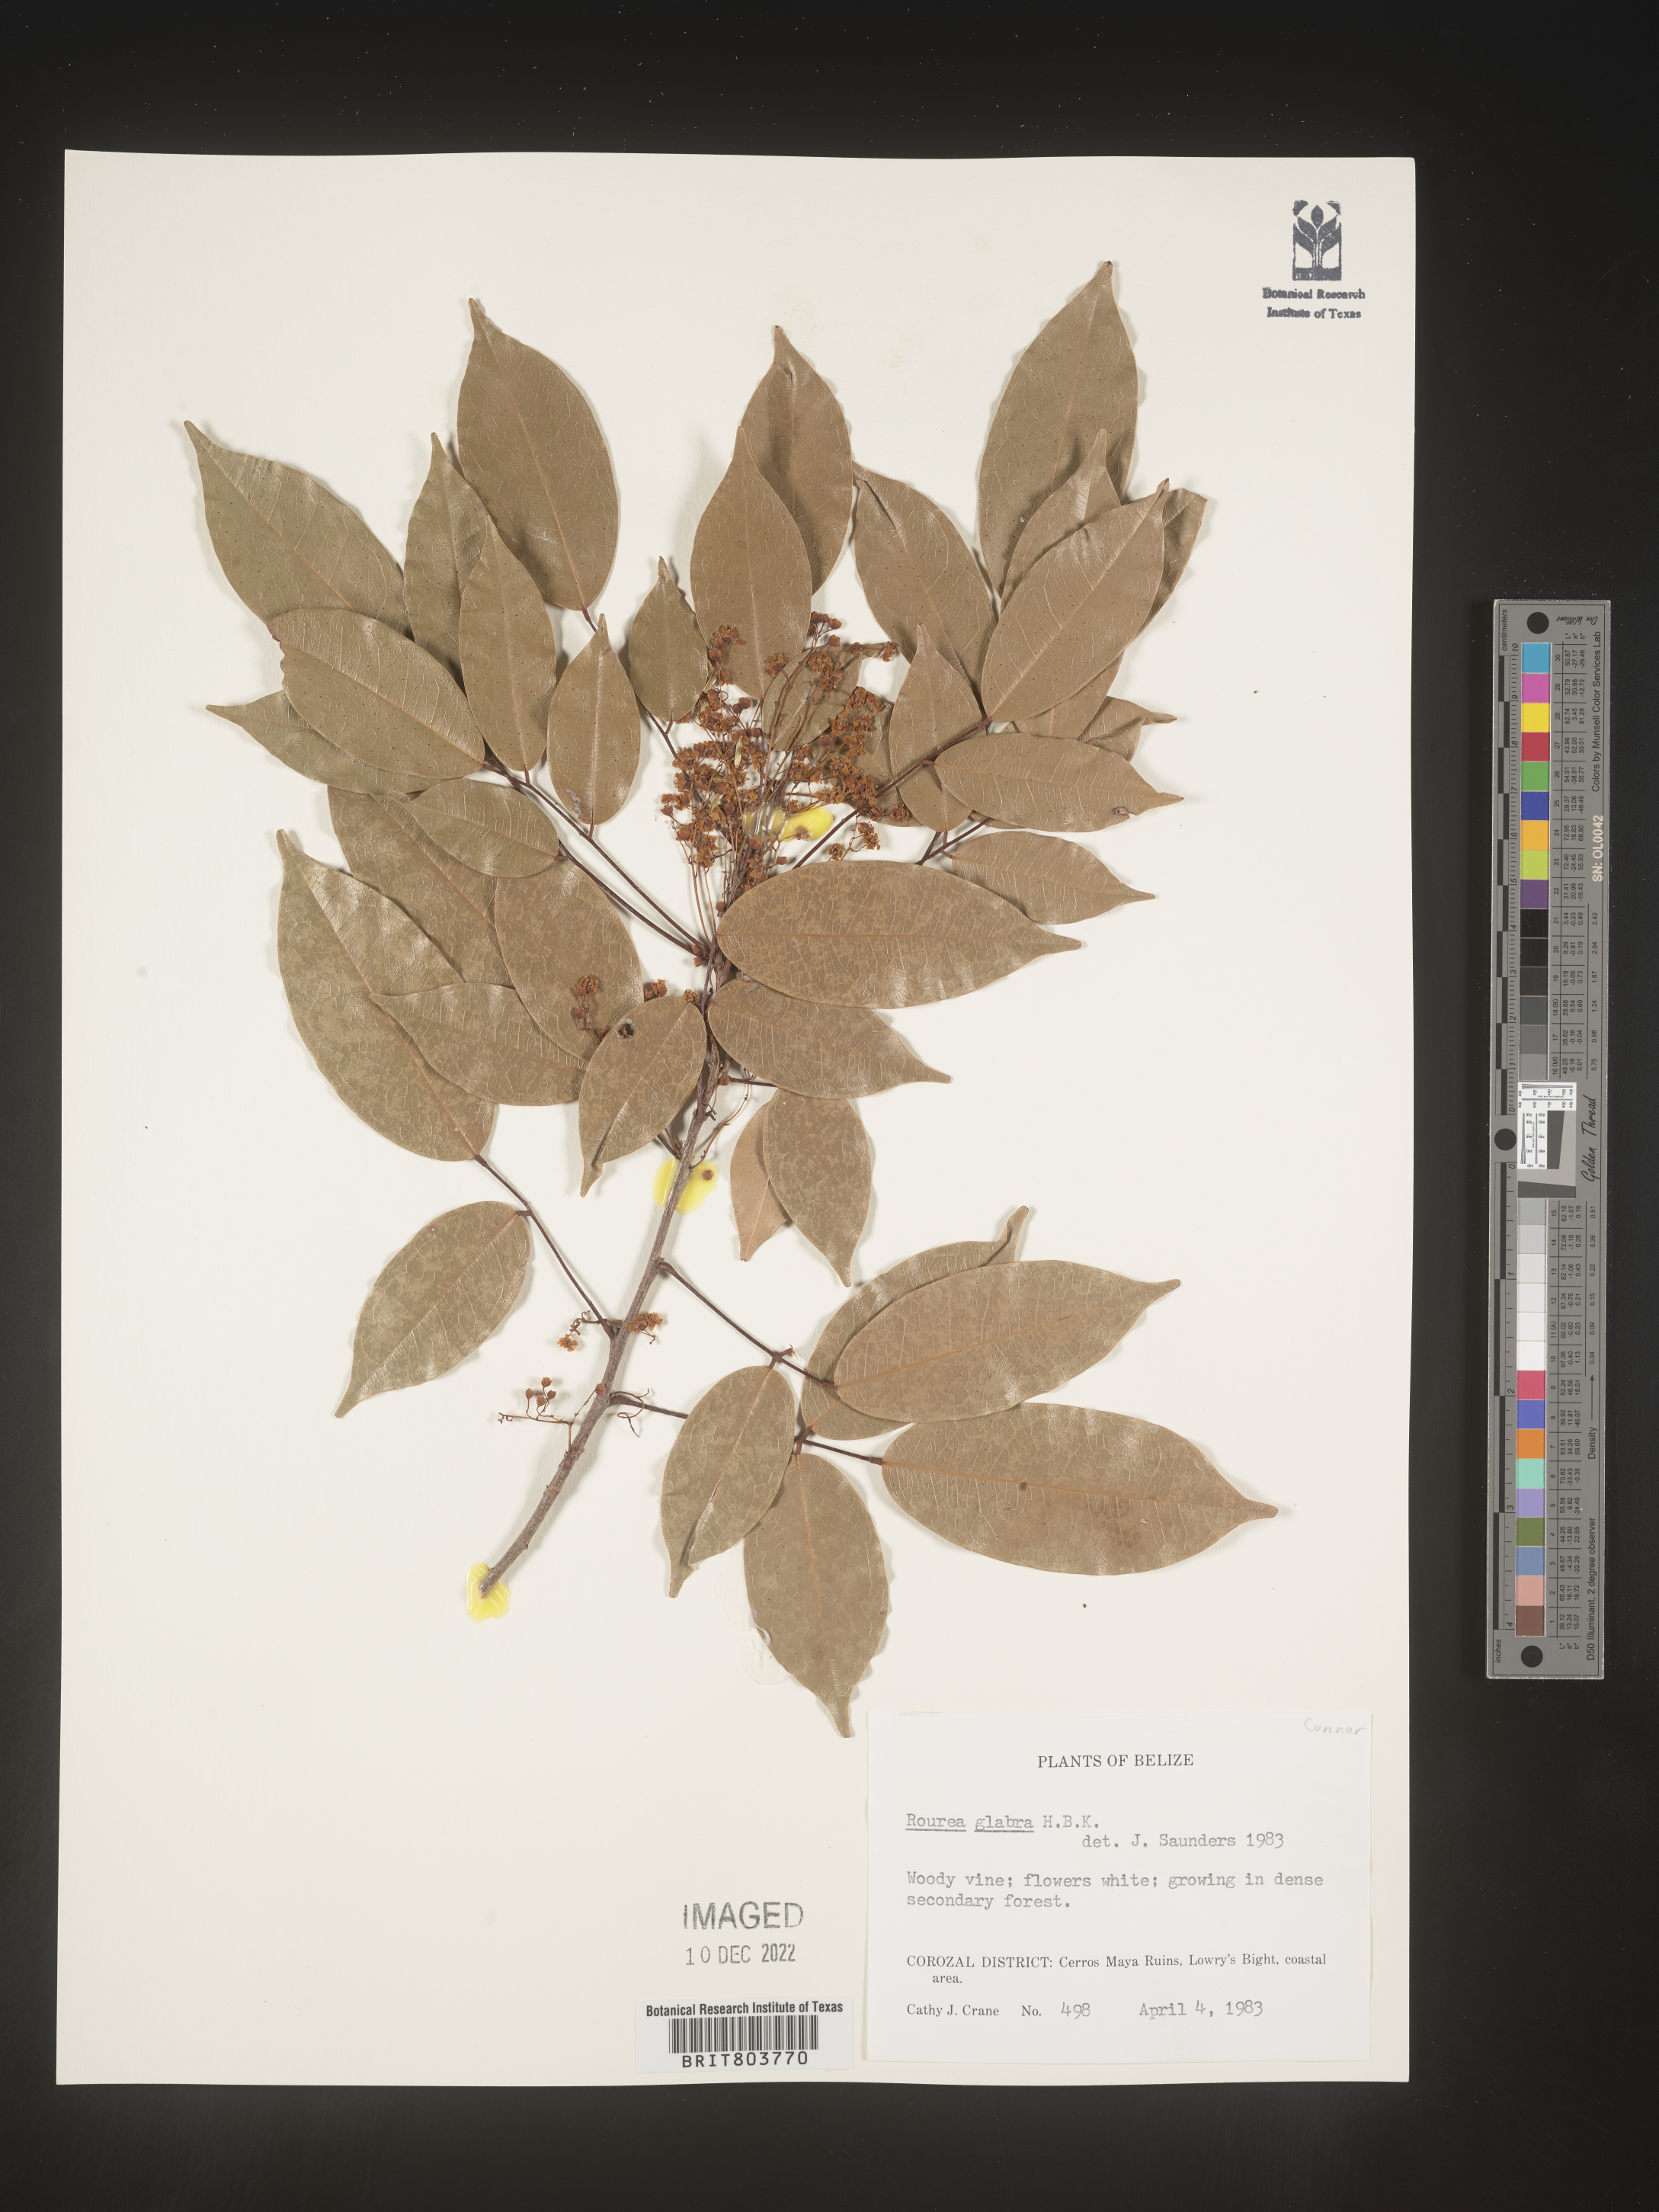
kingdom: Plantae
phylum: Tracheophyta
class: Magnoliopsida
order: Oxalidales
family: Connaraceae
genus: Rourea
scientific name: Rourea
